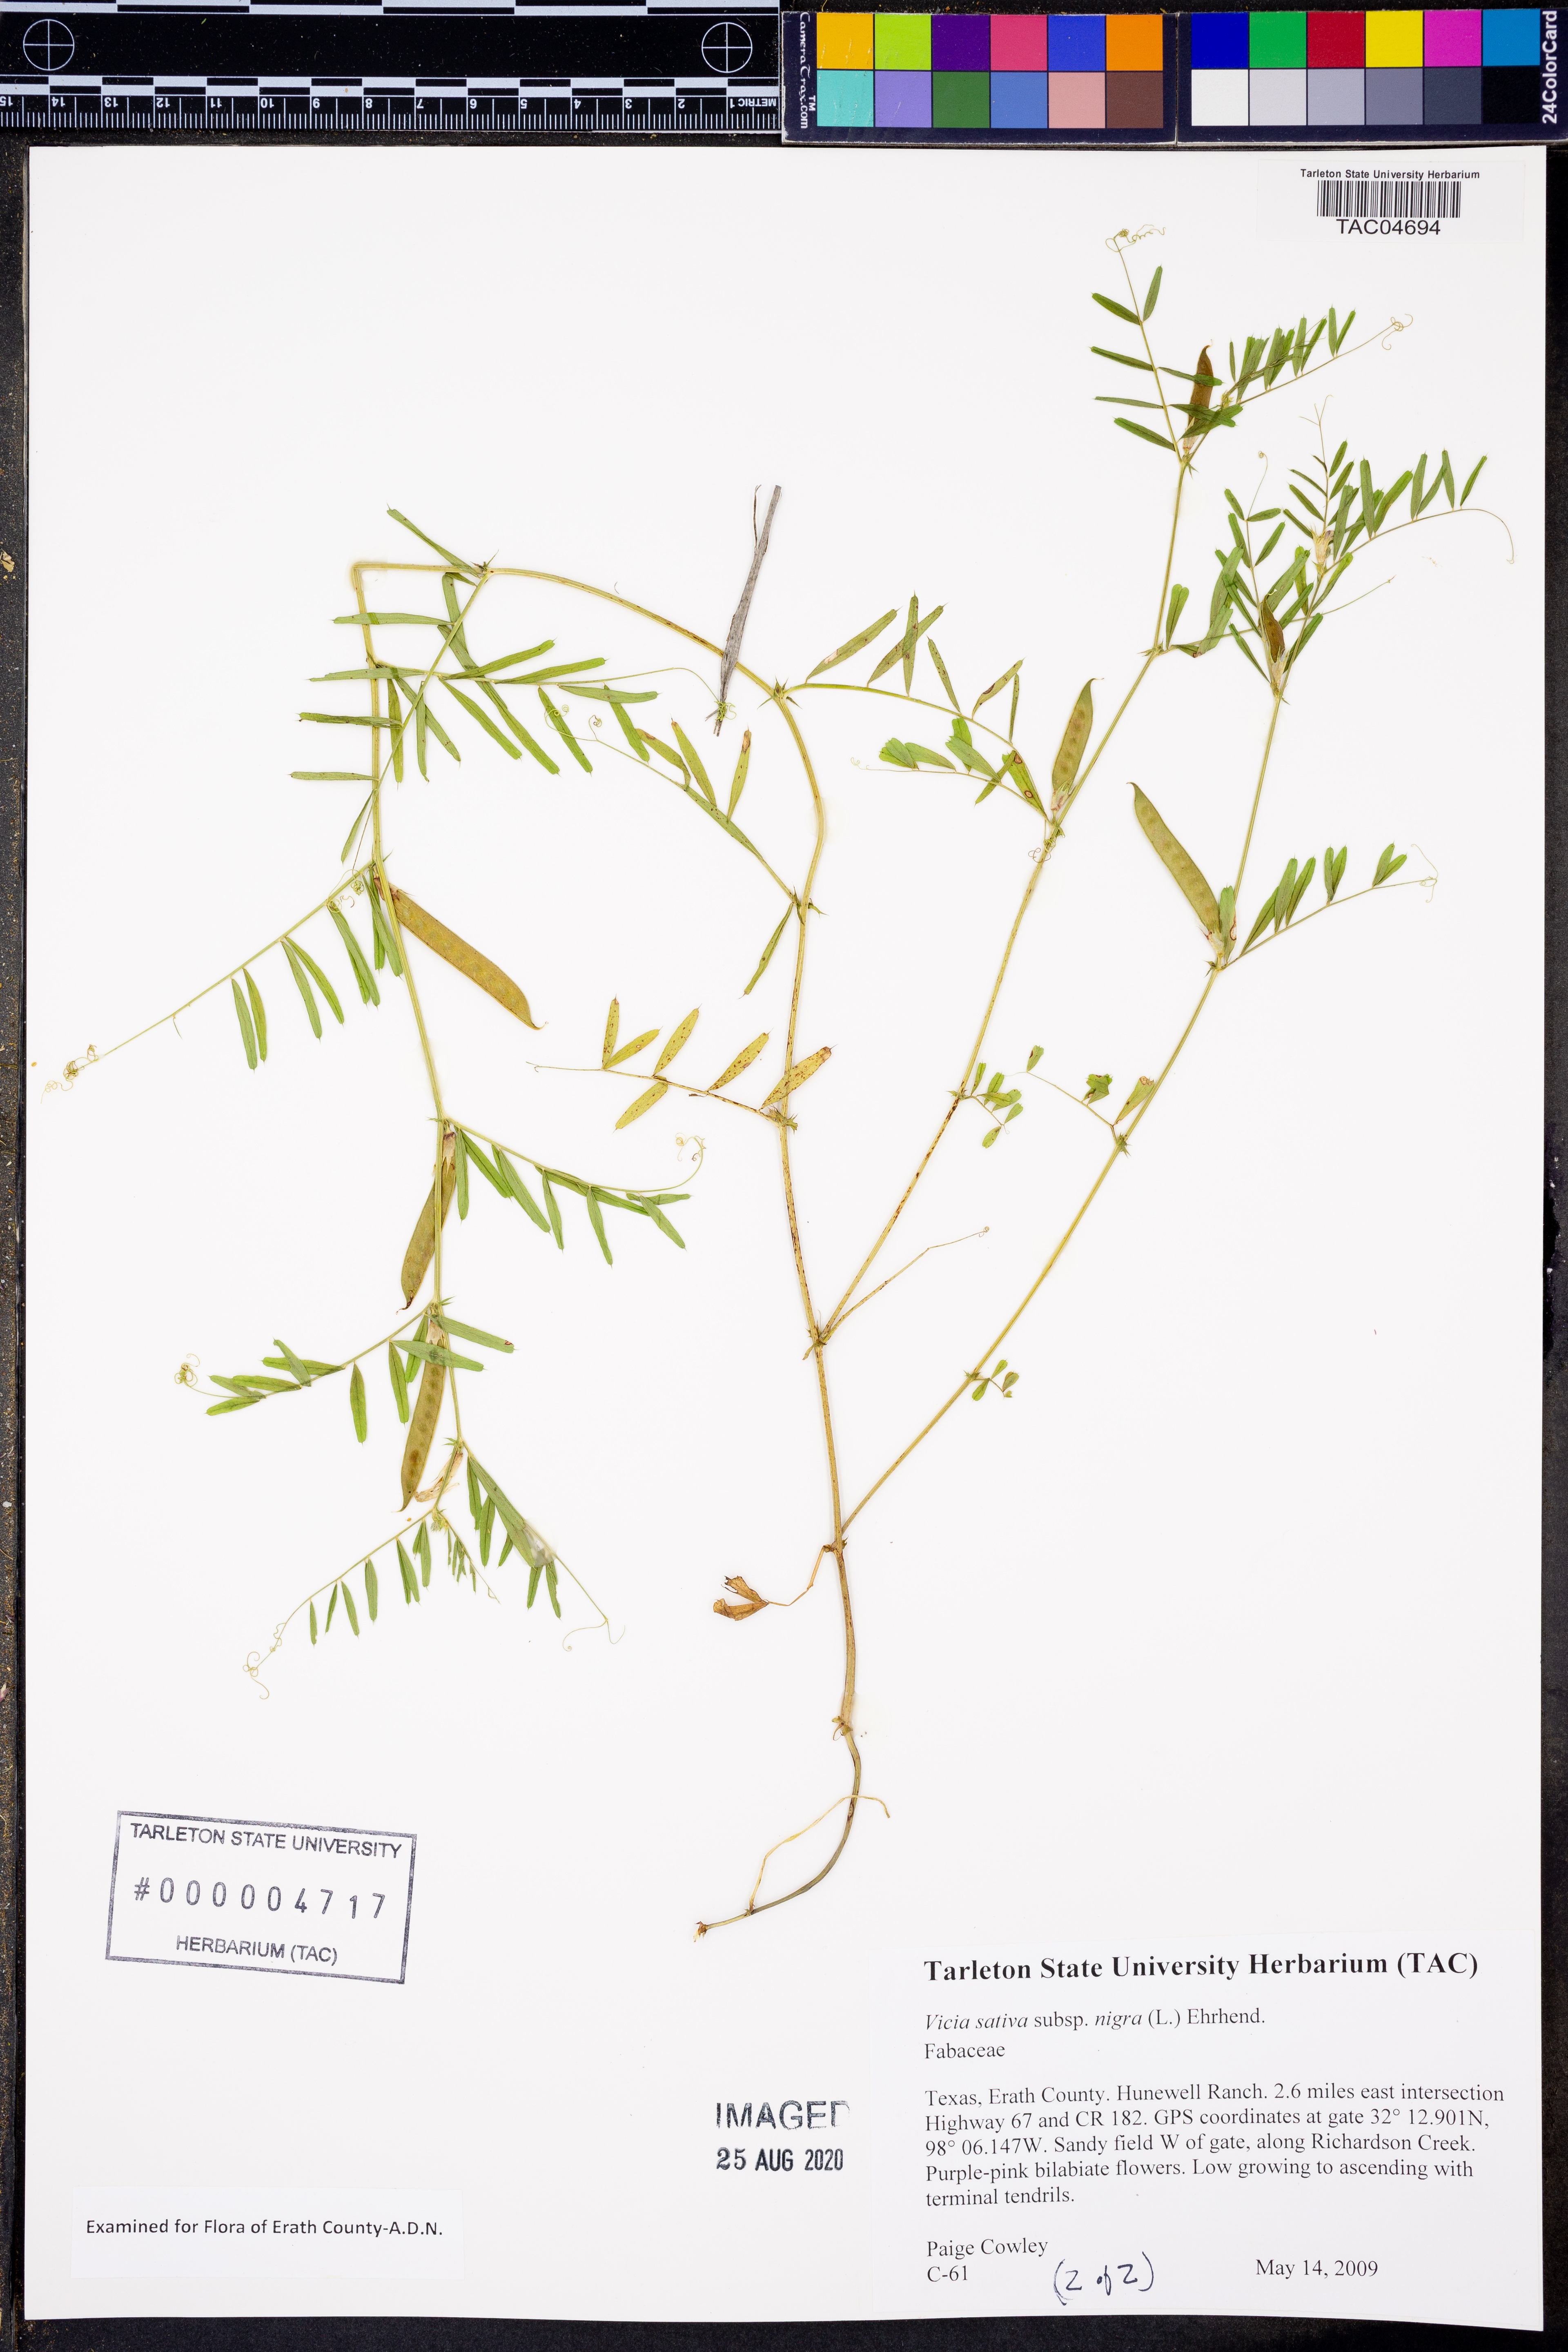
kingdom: Plantae
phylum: Tracheophyta
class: Magnoliopsida
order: Fabales
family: Fabaceae
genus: Vicia
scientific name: Vicia sativa
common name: Garden vetch
